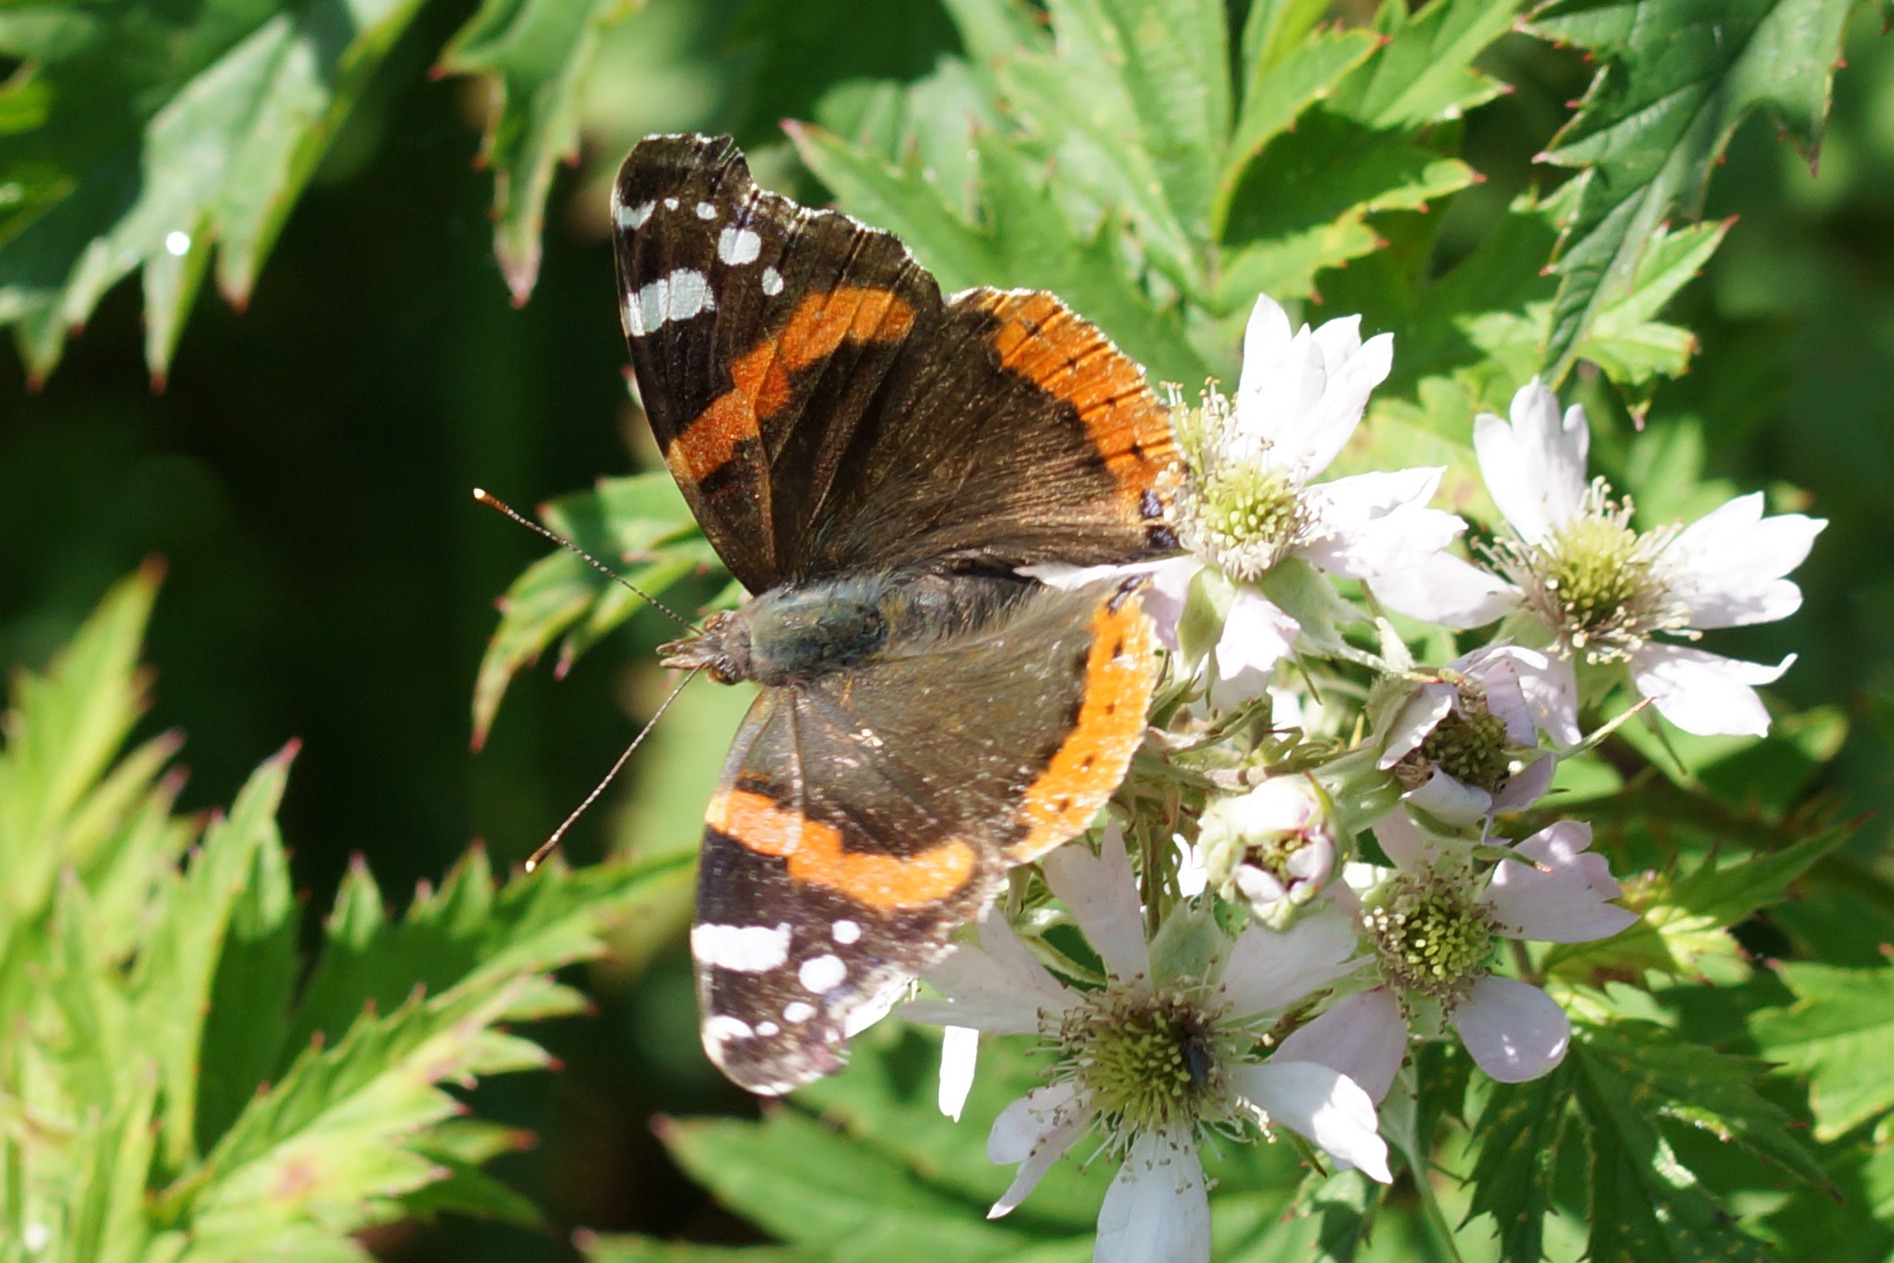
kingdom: Animalia
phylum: Arthropoda
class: Insecta
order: Lepidoptera
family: Nymphalidae
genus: Vanessa
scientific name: Vanessa atalanta
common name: Admiral
